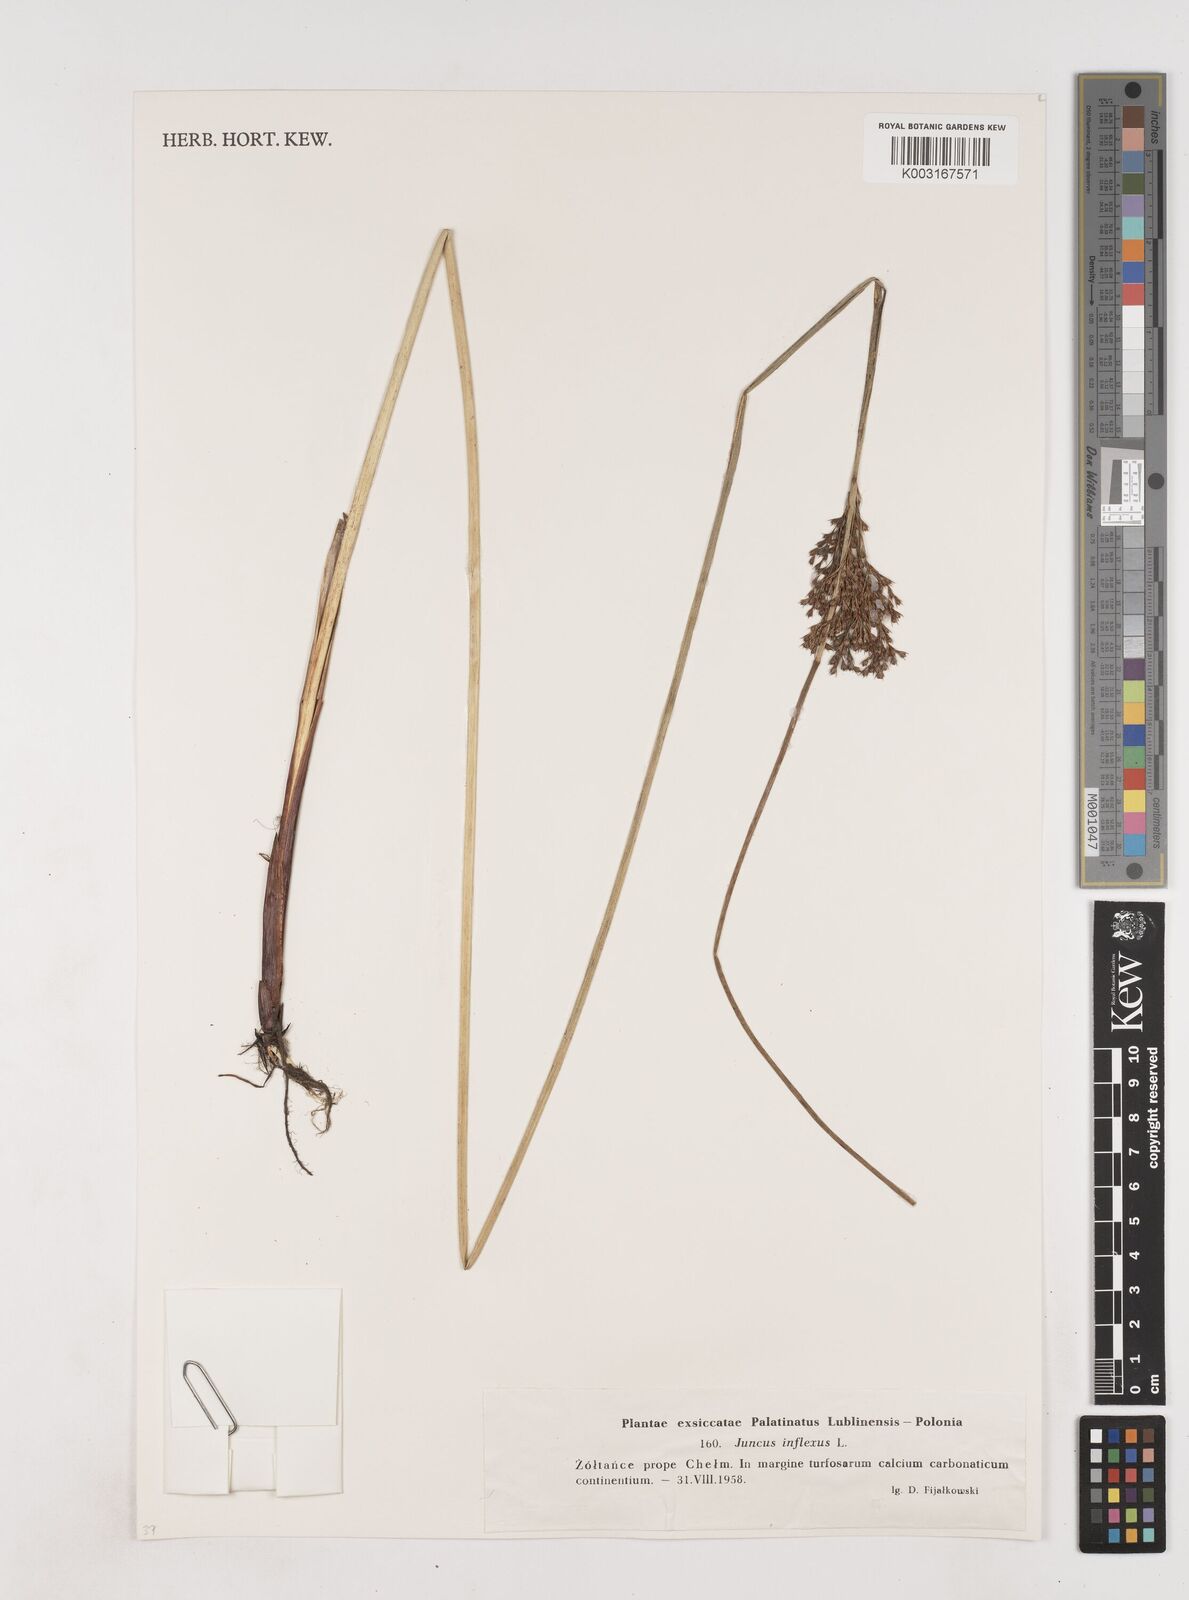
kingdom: Plantae
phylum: Tracheophyta
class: Liliopsida
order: Poales
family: Juncaceae
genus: Juncus
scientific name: Juncus inflexus
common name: Hard rush
